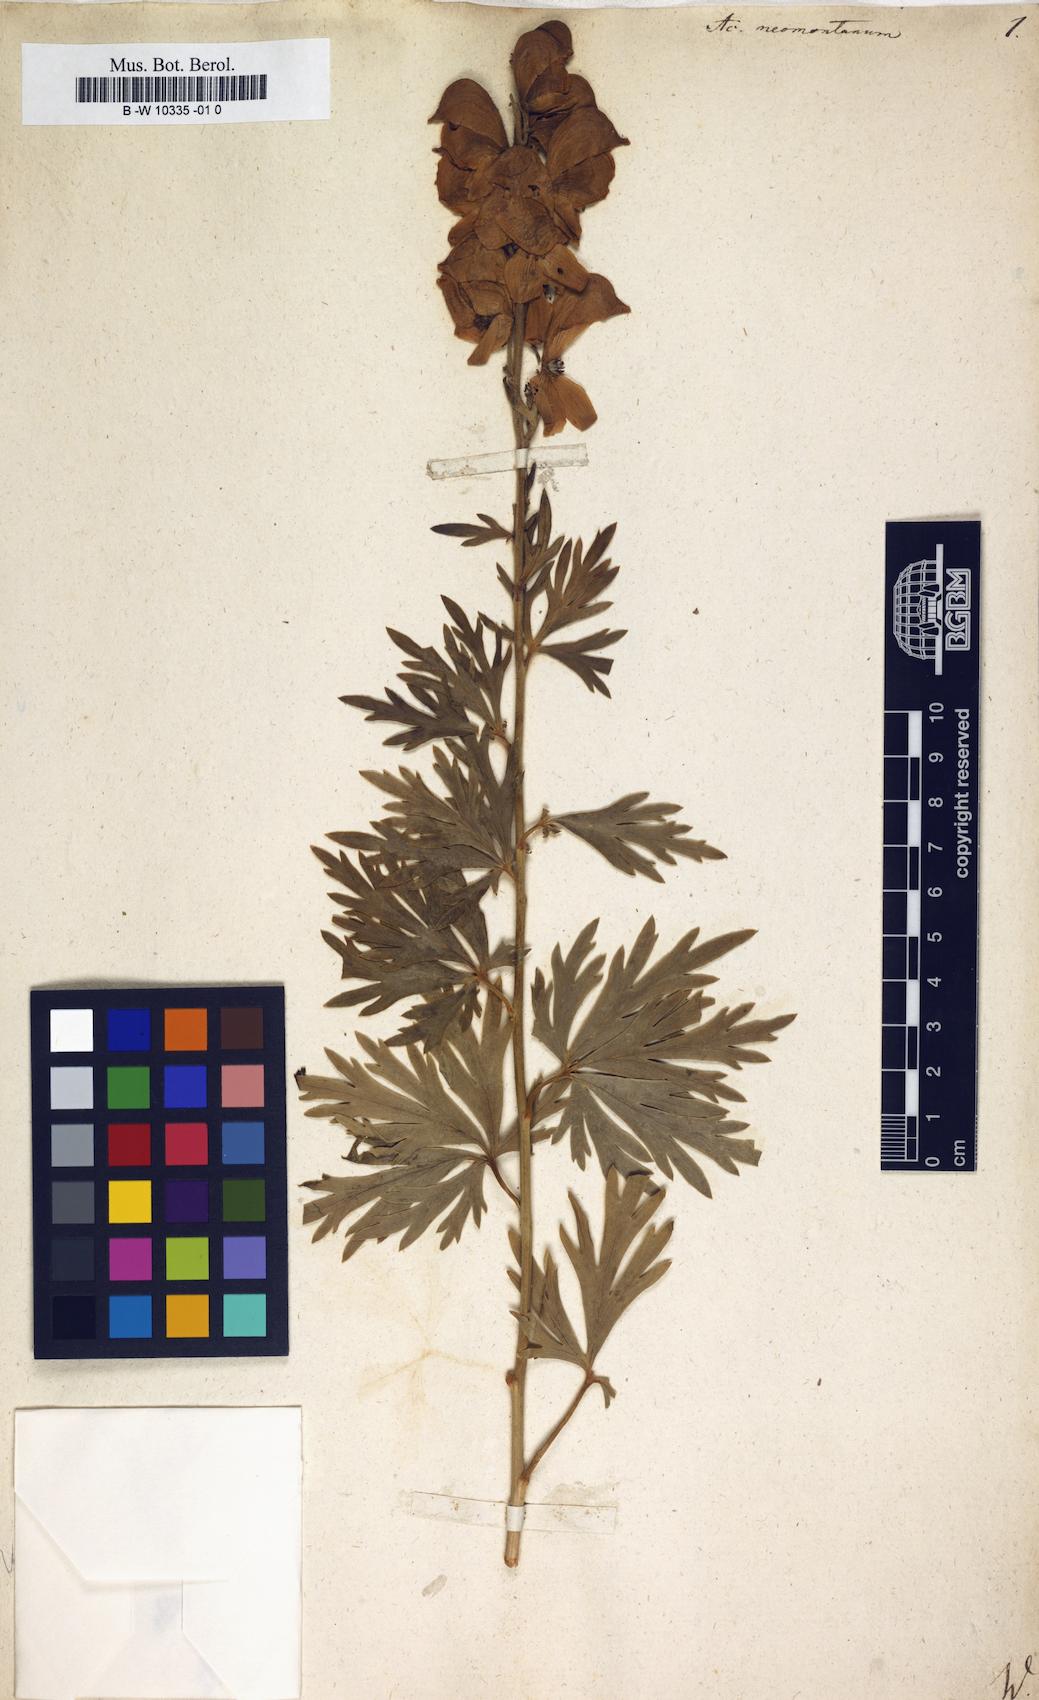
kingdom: Plantae
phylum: Tracheophyta
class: Magnoliopsida
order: Ranunculales
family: Ranunculaceae
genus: Aconitum
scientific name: Aconitum napellus
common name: Garden monkshood
